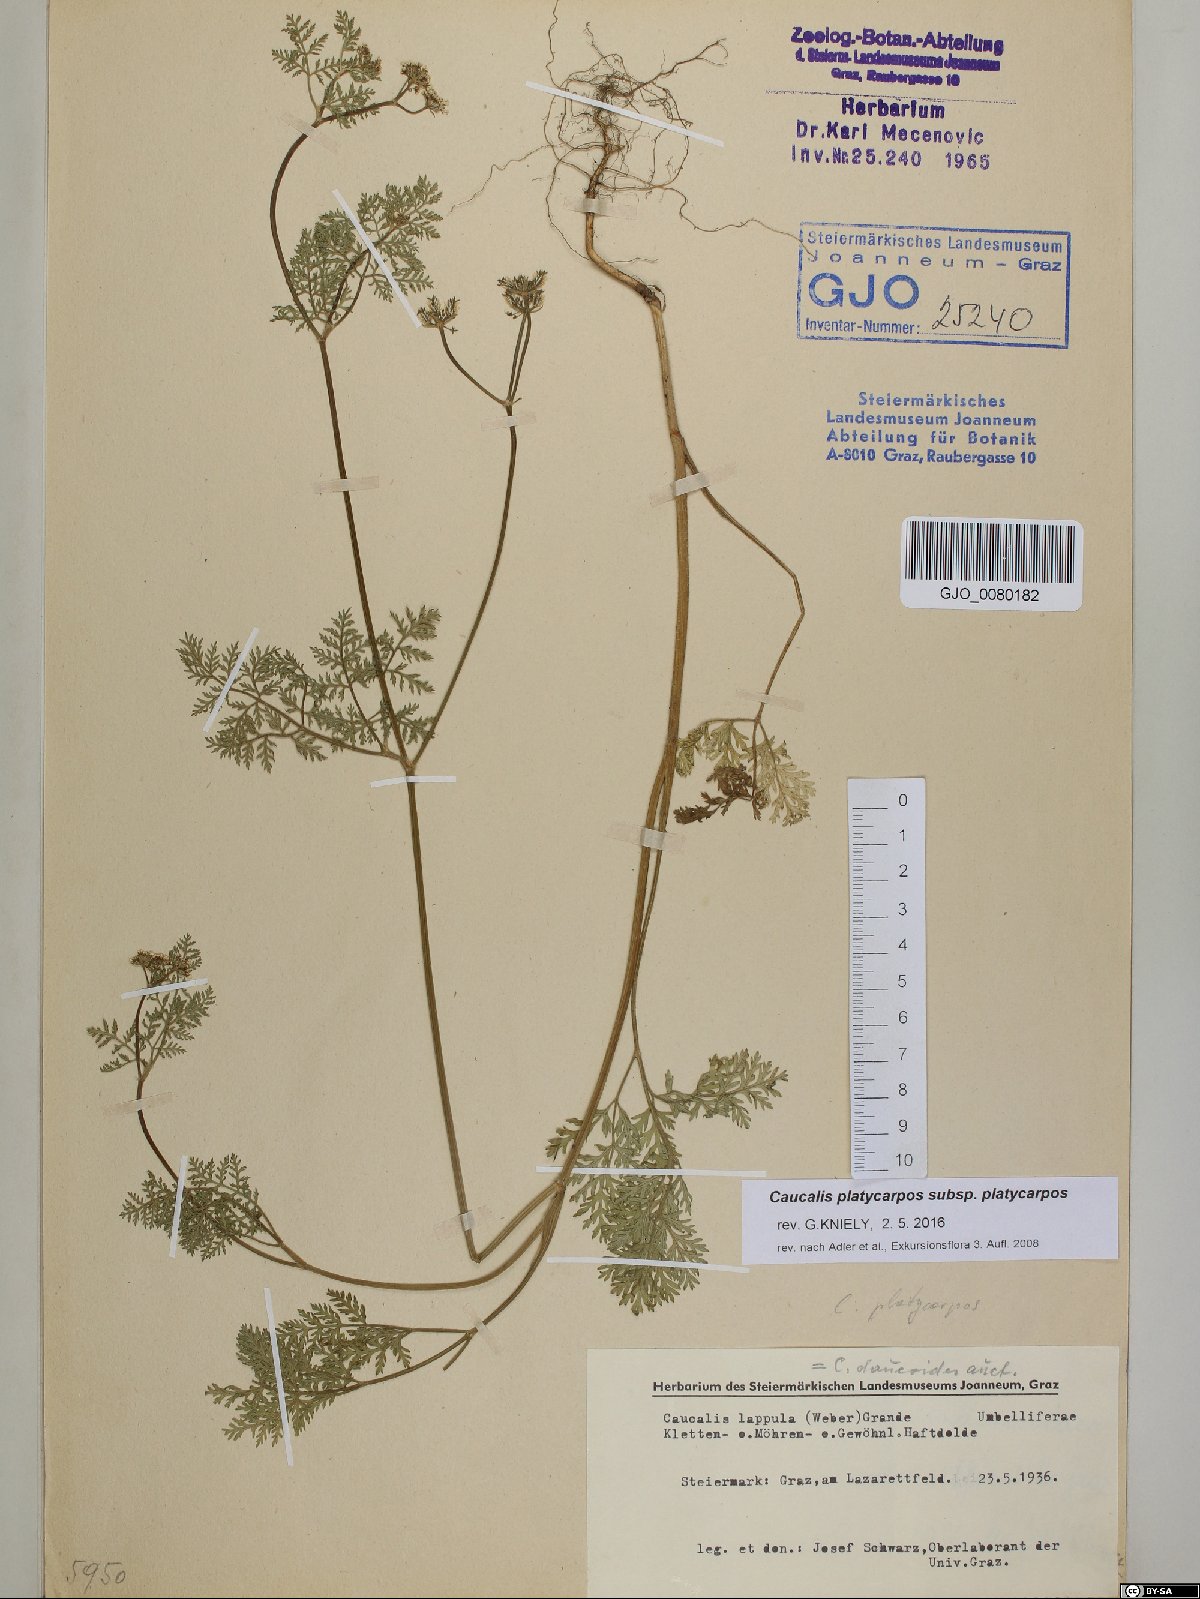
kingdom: Plantae
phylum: Tracheophyta
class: Magnoliopsida
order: Apiales
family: Apiaceae
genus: Caucalis
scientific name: Caucalis platycarpos
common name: Small bur-parsley
